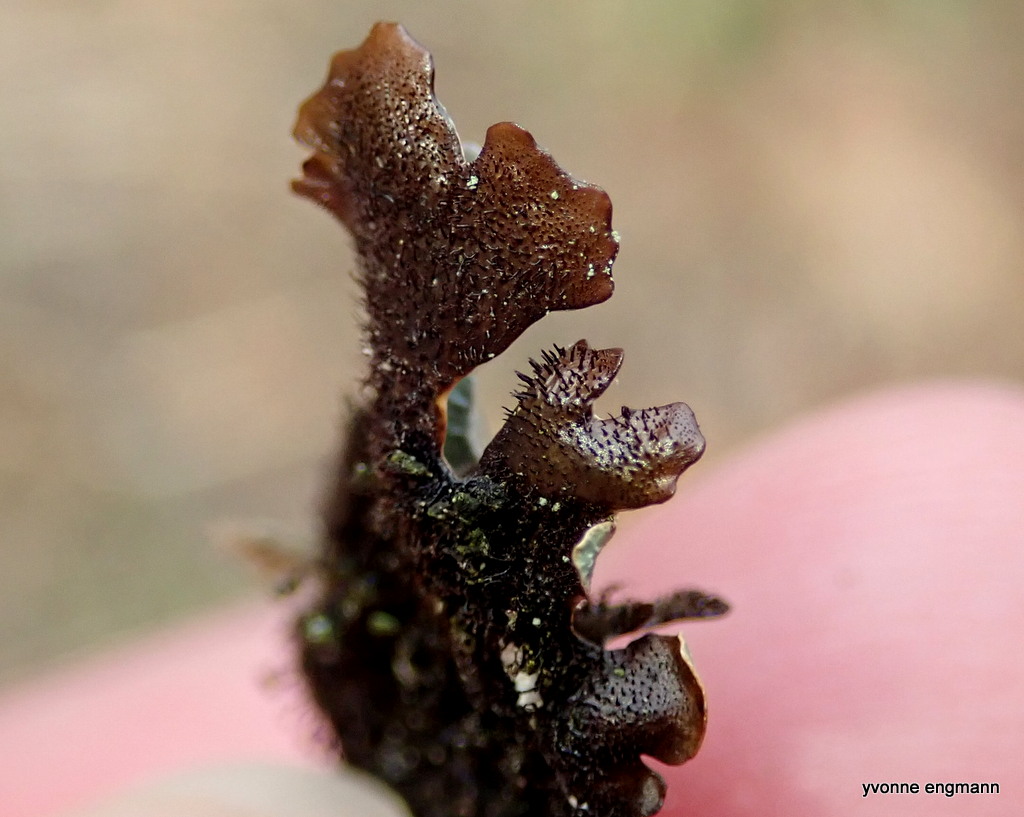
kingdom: Fungi
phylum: Ascomycota
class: Lecanoromycetes
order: Lecanorales
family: Parmeliaceae
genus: Parmelia
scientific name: Parmelia sulcata
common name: rynket skållav
